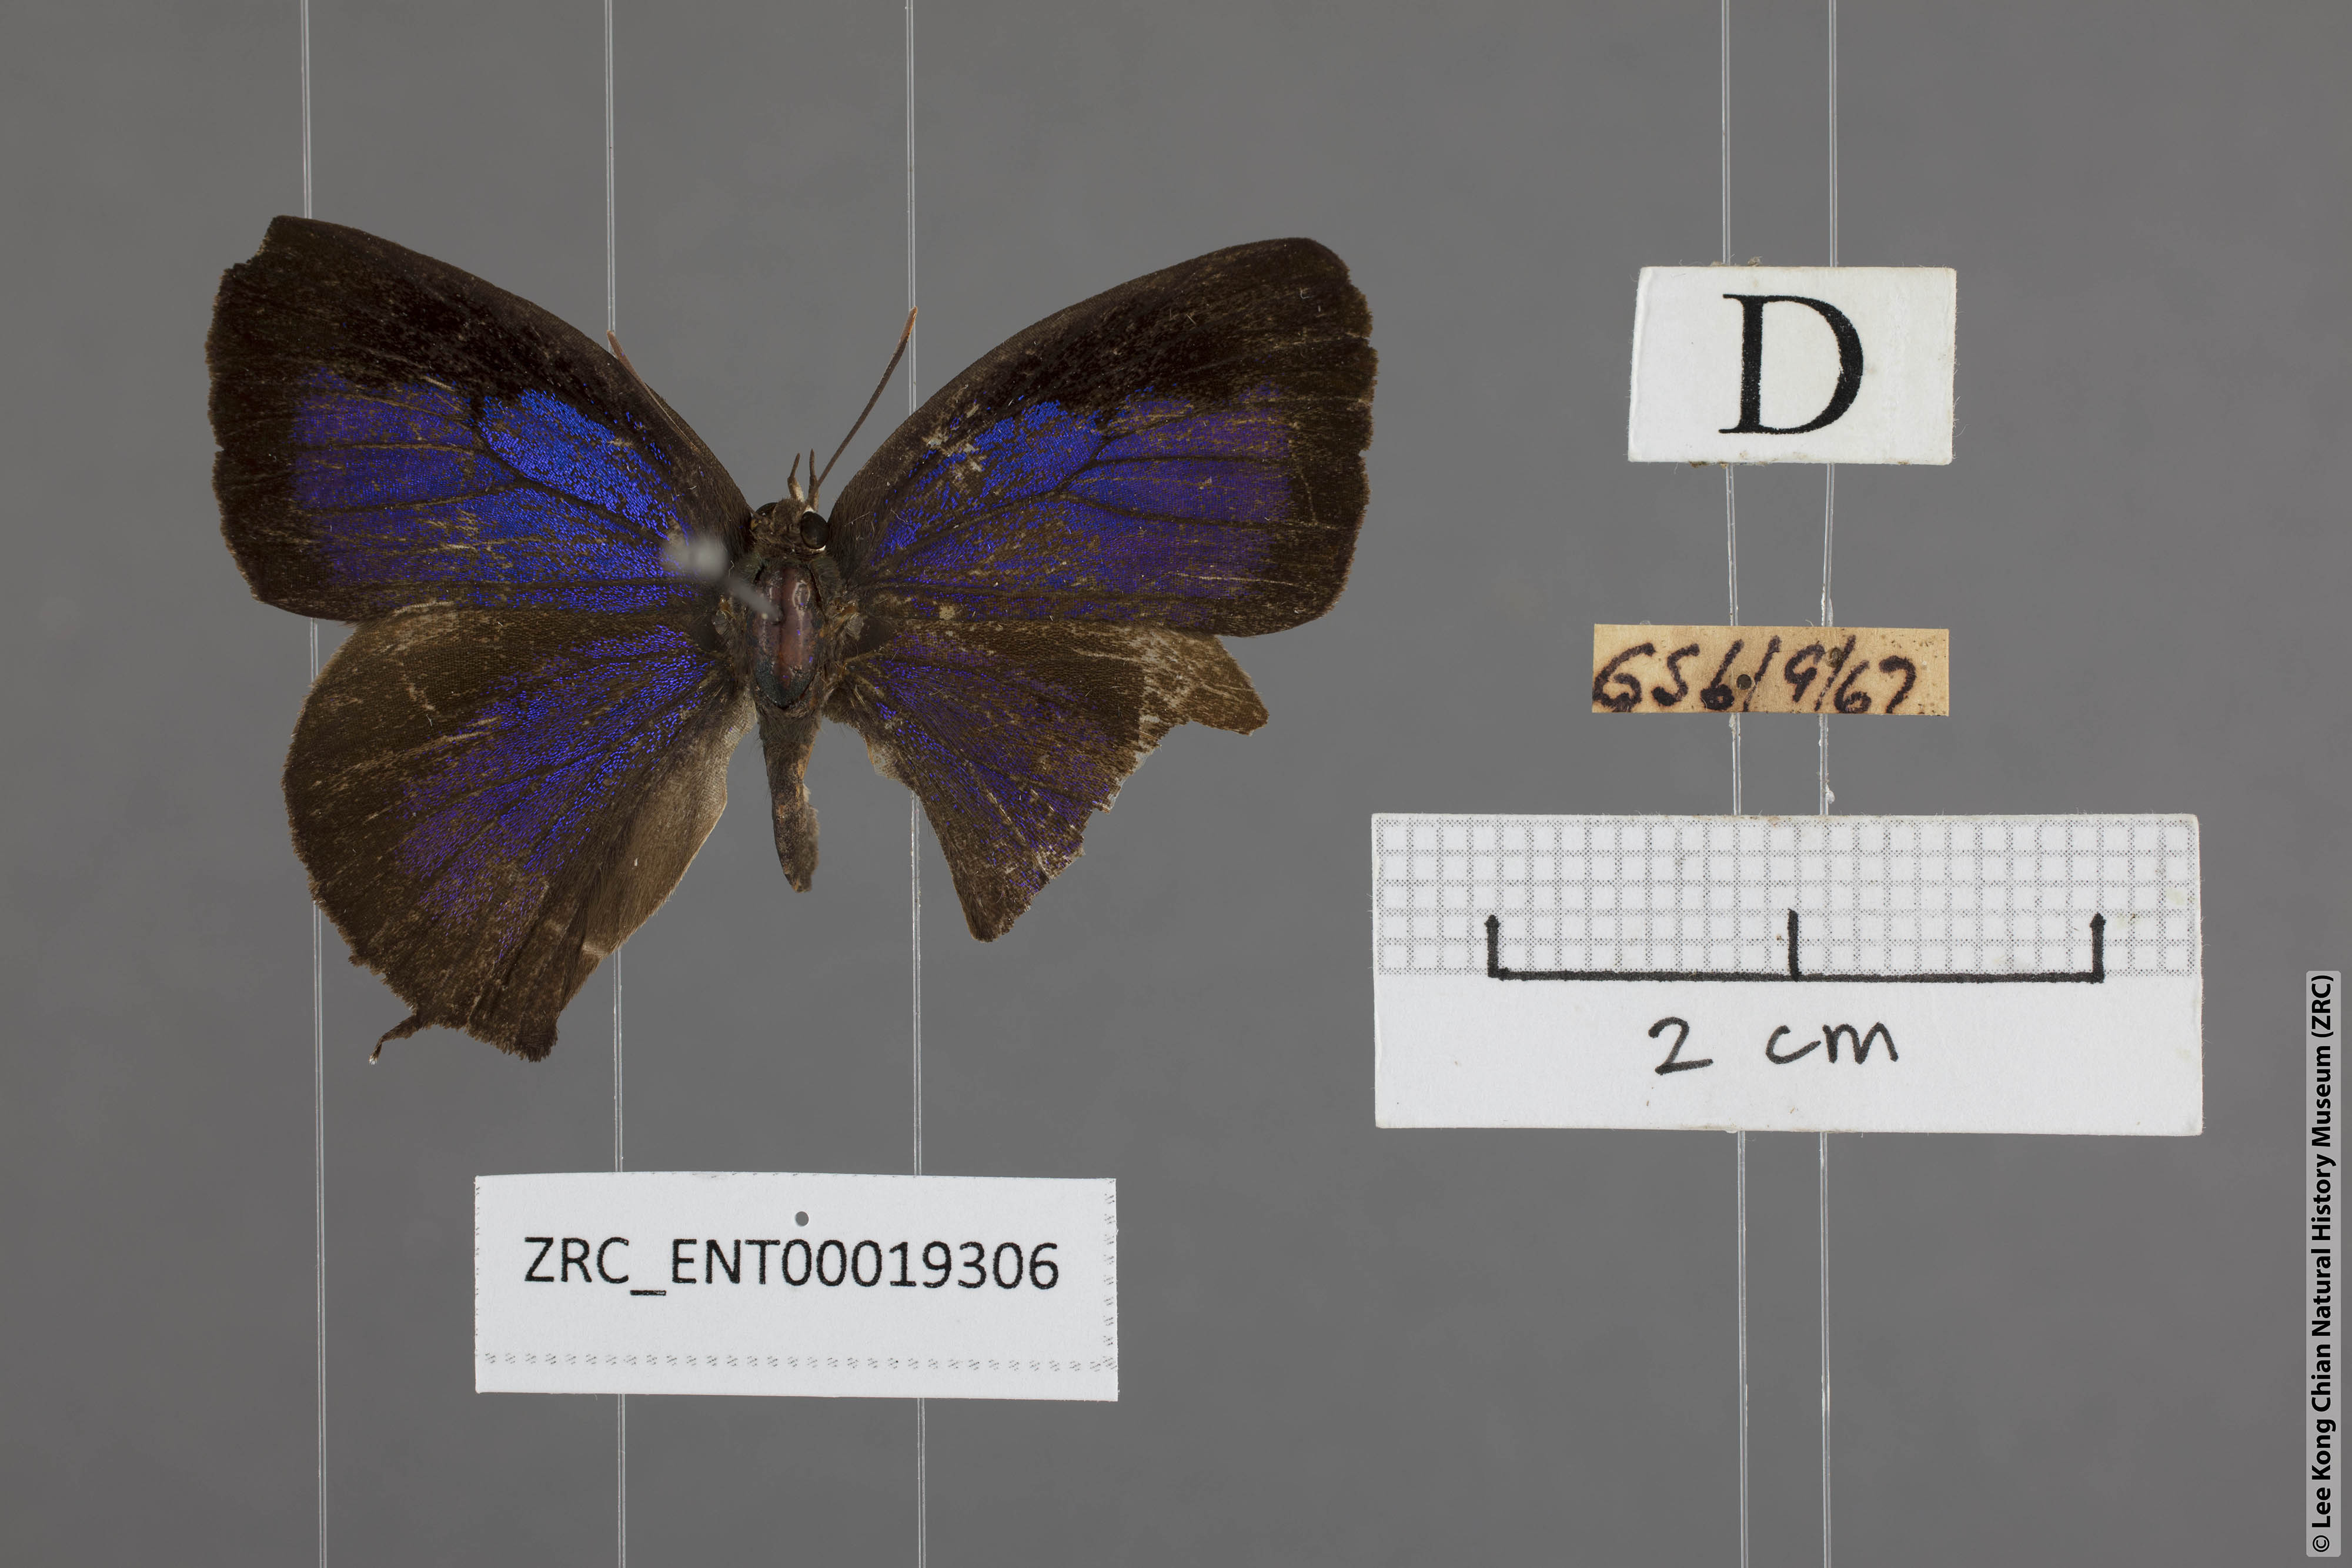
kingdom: Animalia
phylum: Arthropoda
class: Insecta
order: Lepidoptera
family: Lycaenidae
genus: Arhopala
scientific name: Arhopala bazalus
